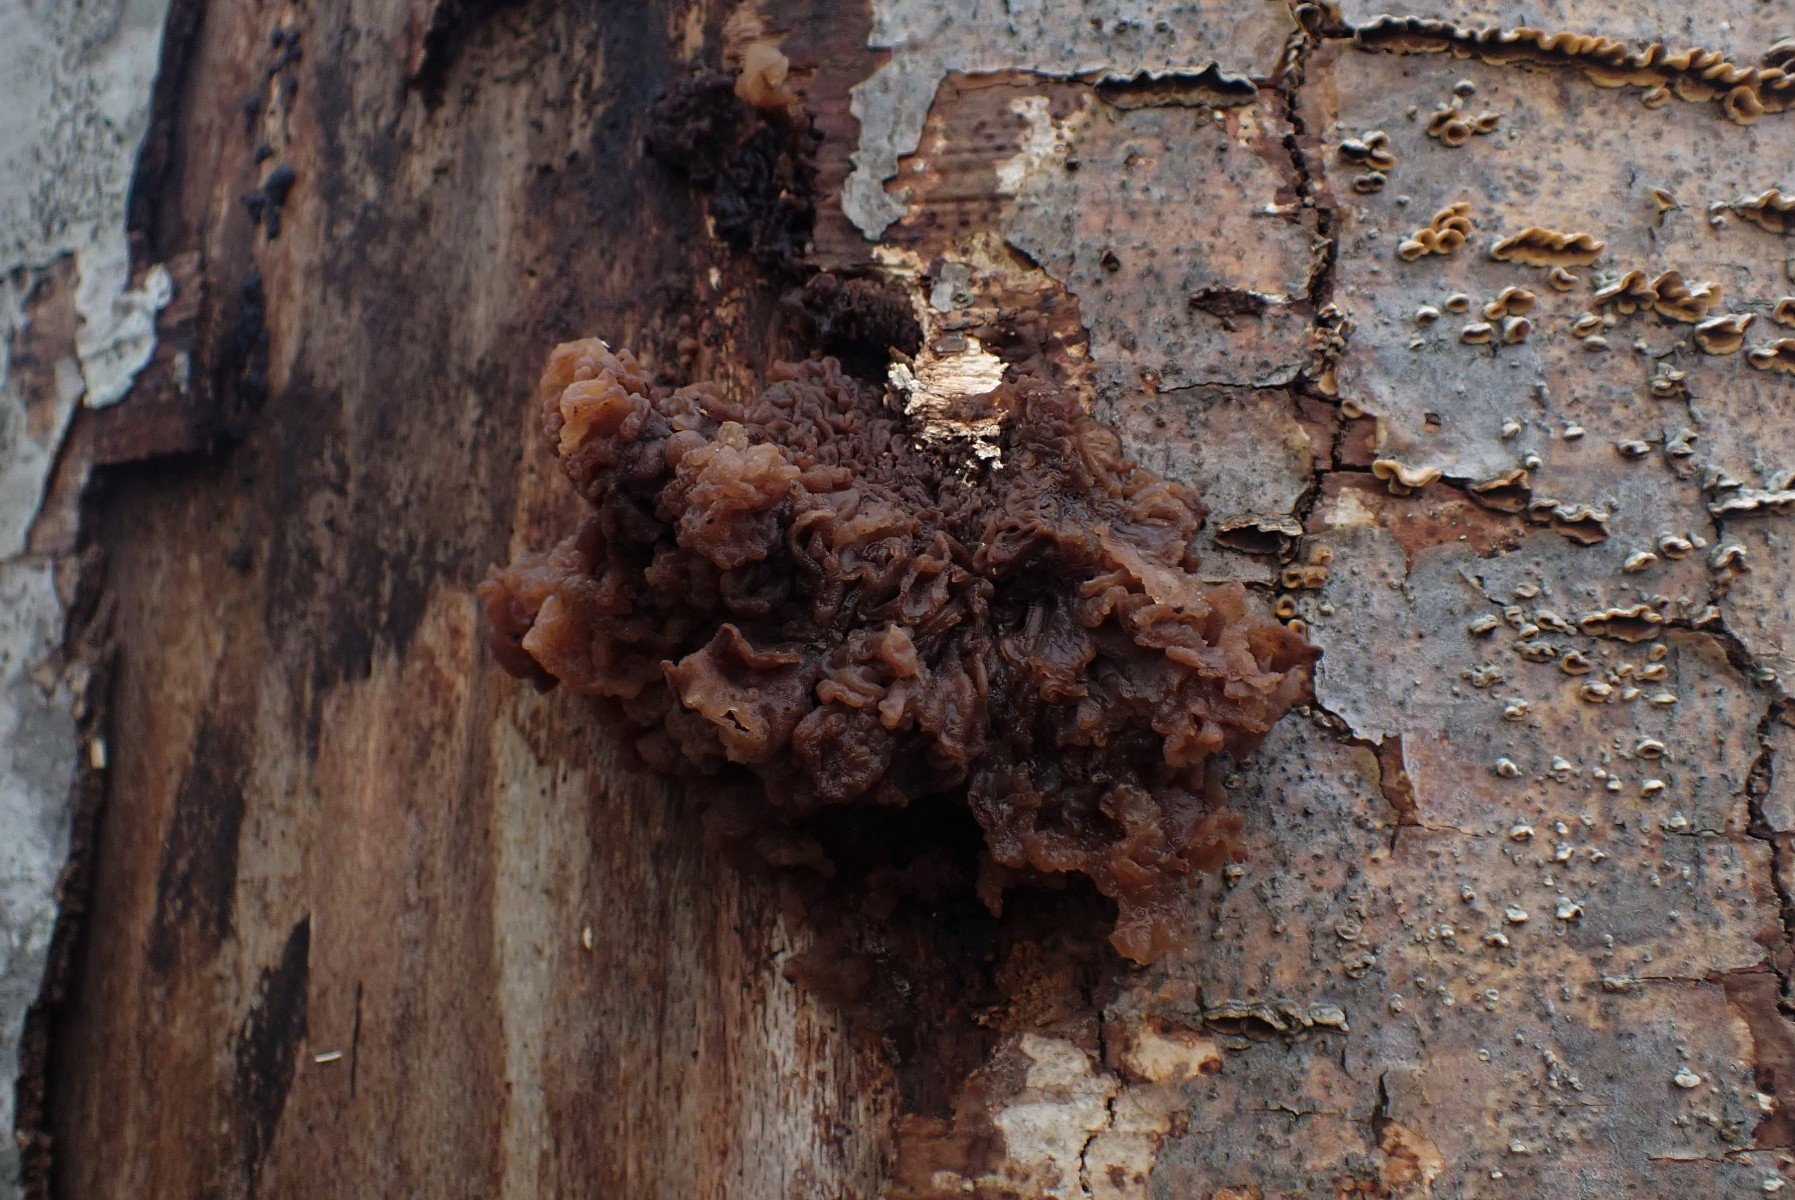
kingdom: Fungi
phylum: Basidiomycota
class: Tremellomycetes
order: Tremellales
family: Tremellaceae
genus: Phaeotremella
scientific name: Phaeotremella frondosa
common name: kæmpe-bævresvamp
